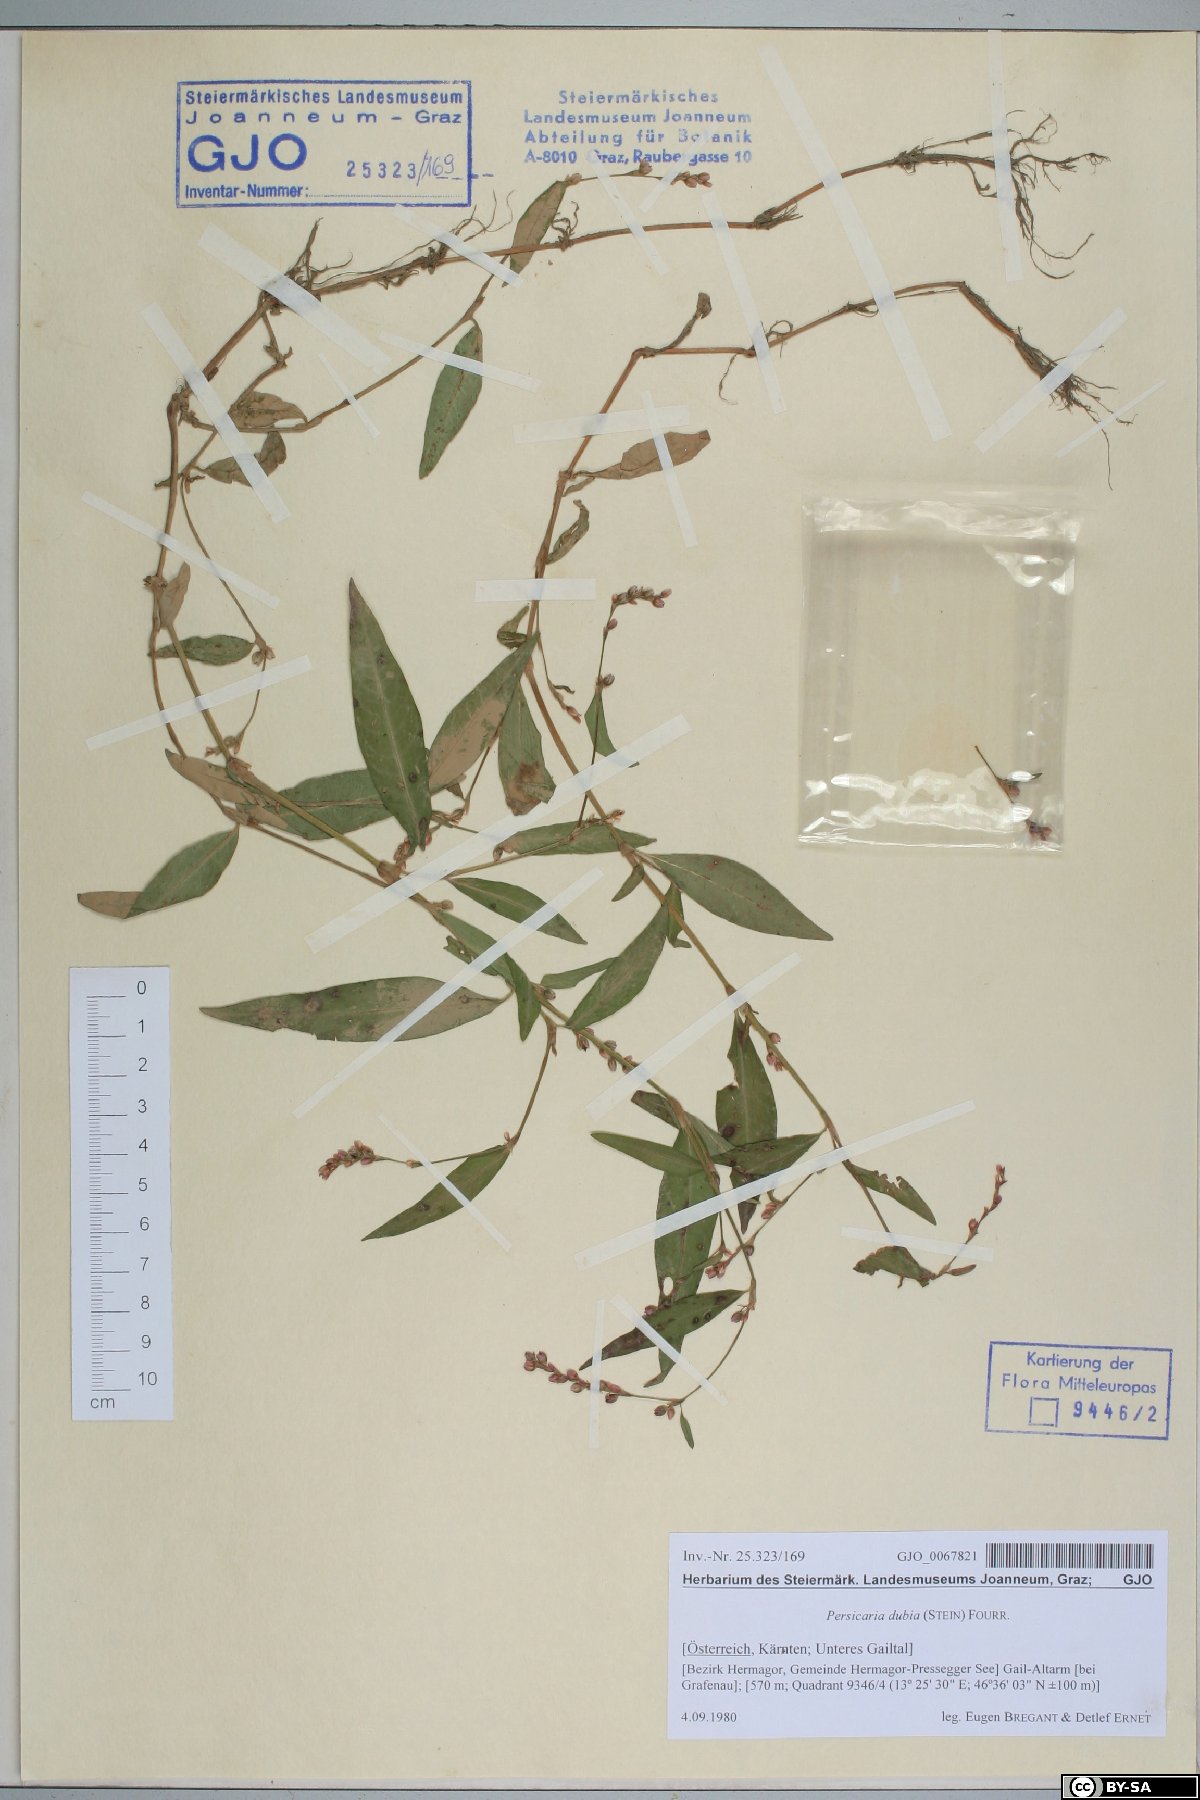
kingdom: Plantae
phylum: Tracheophyta
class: Magnoliopsida
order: Caryophyllales
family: Polygonaceae
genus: Persicaria
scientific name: Persicaria mitis
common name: Tasteless water-pepper
